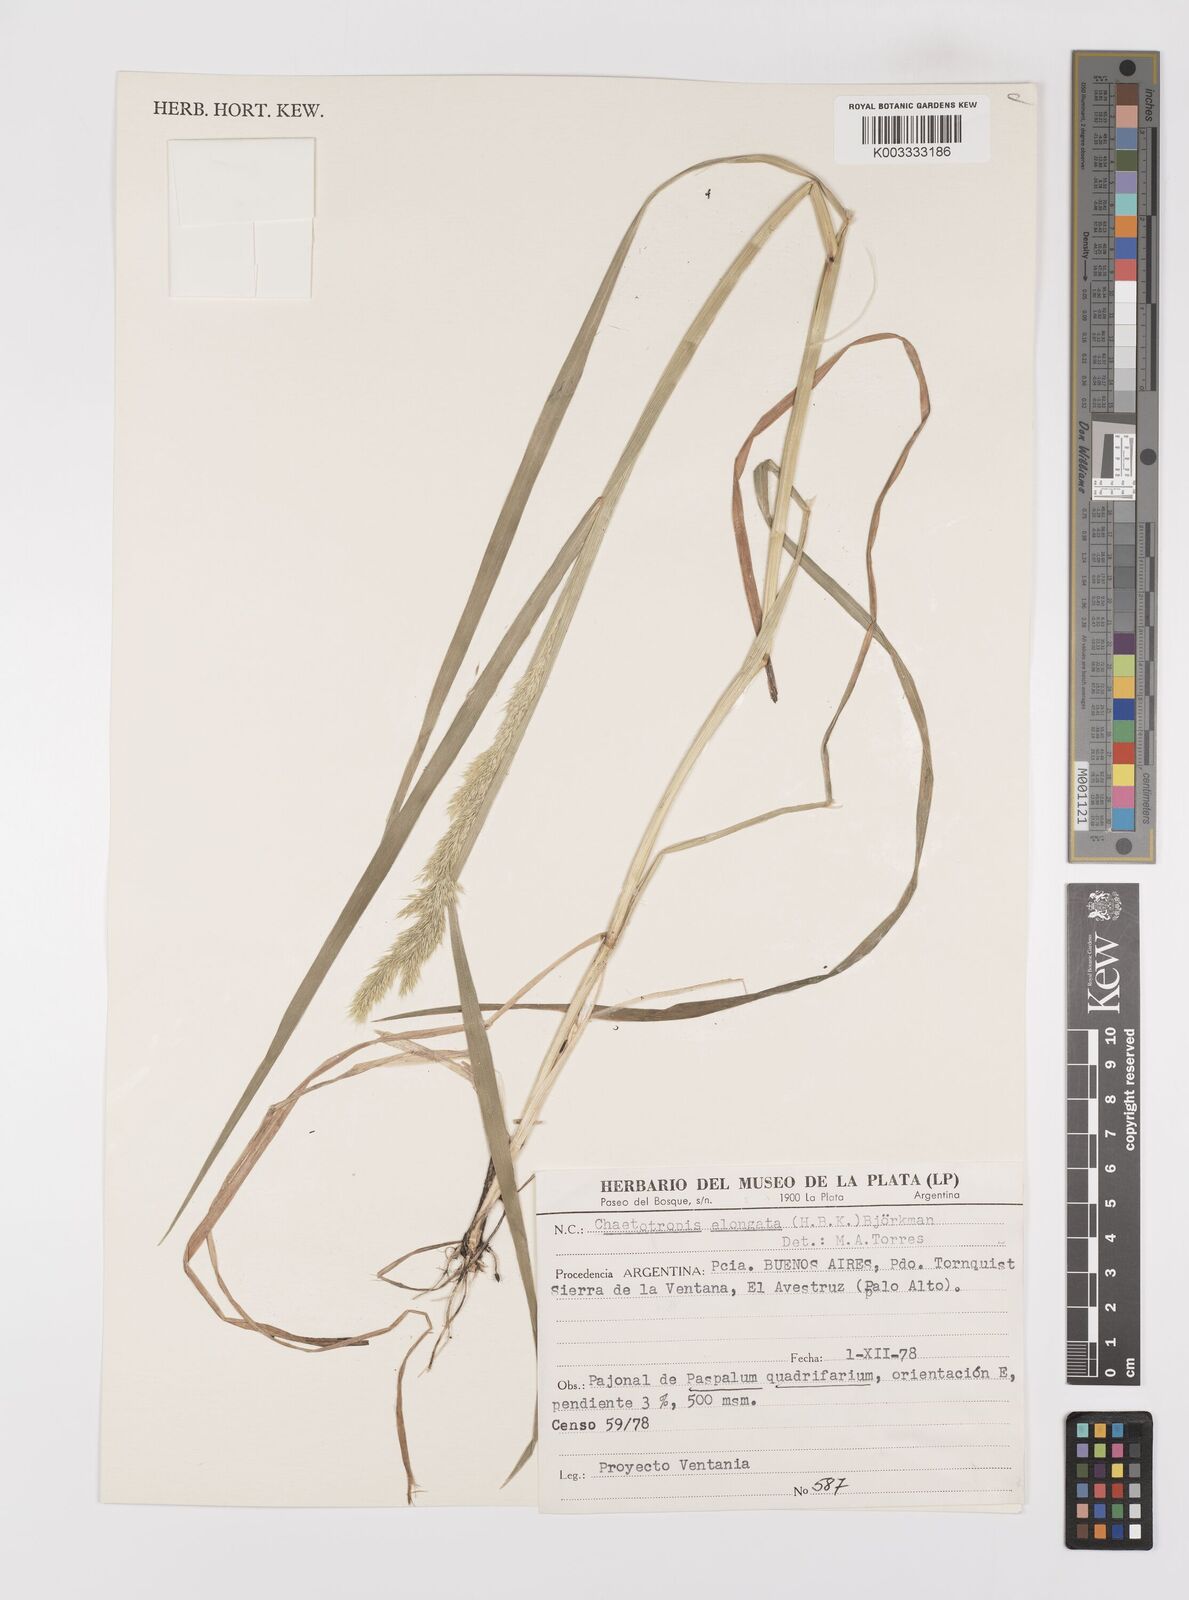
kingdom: Plantae
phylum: Tracheophyta
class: Liliopsida
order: Poales
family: Poaceae
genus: Polypogon
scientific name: Polypogon elongatus
